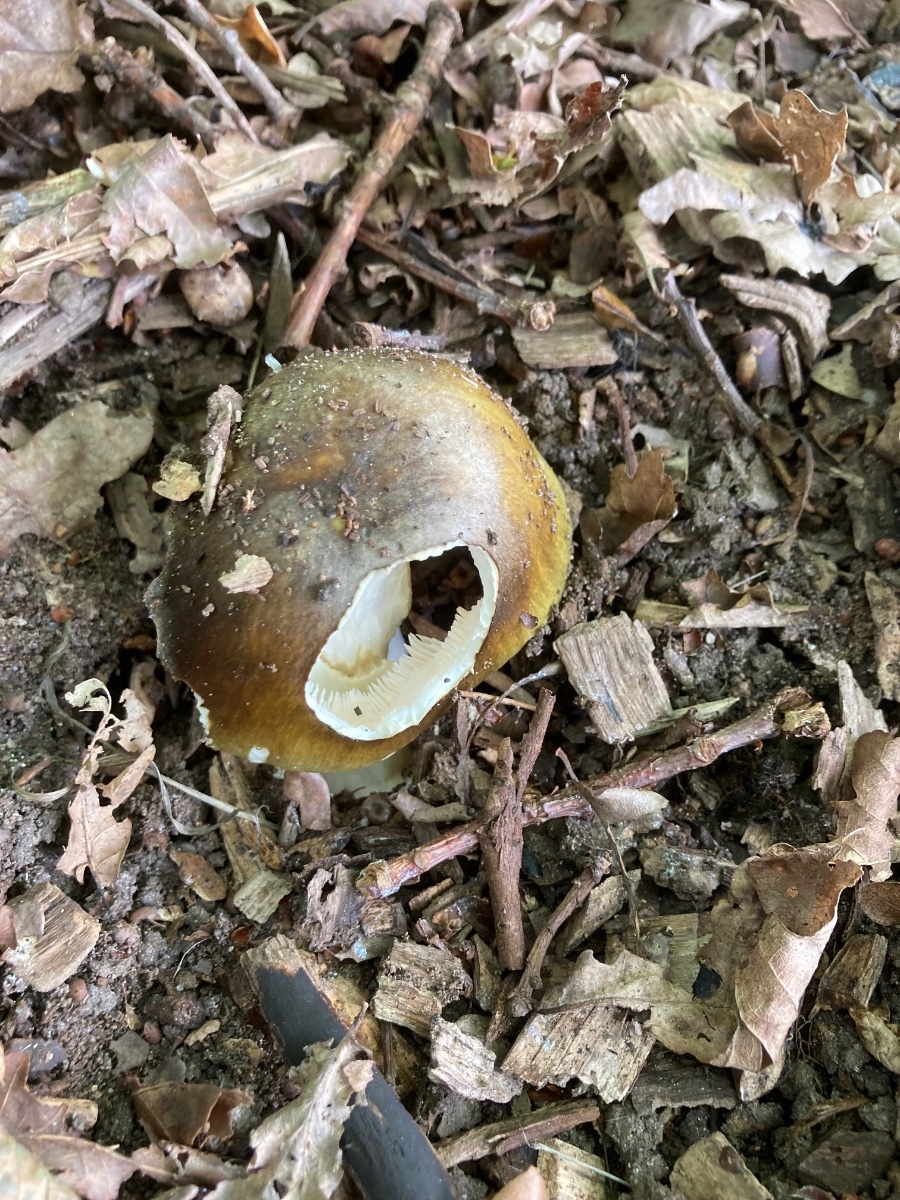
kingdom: Fungi
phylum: Basidiomycota
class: Agaricomycetes
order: Agaricales
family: Amanitaceae
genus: Amanita
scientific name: Amanita phalloides
